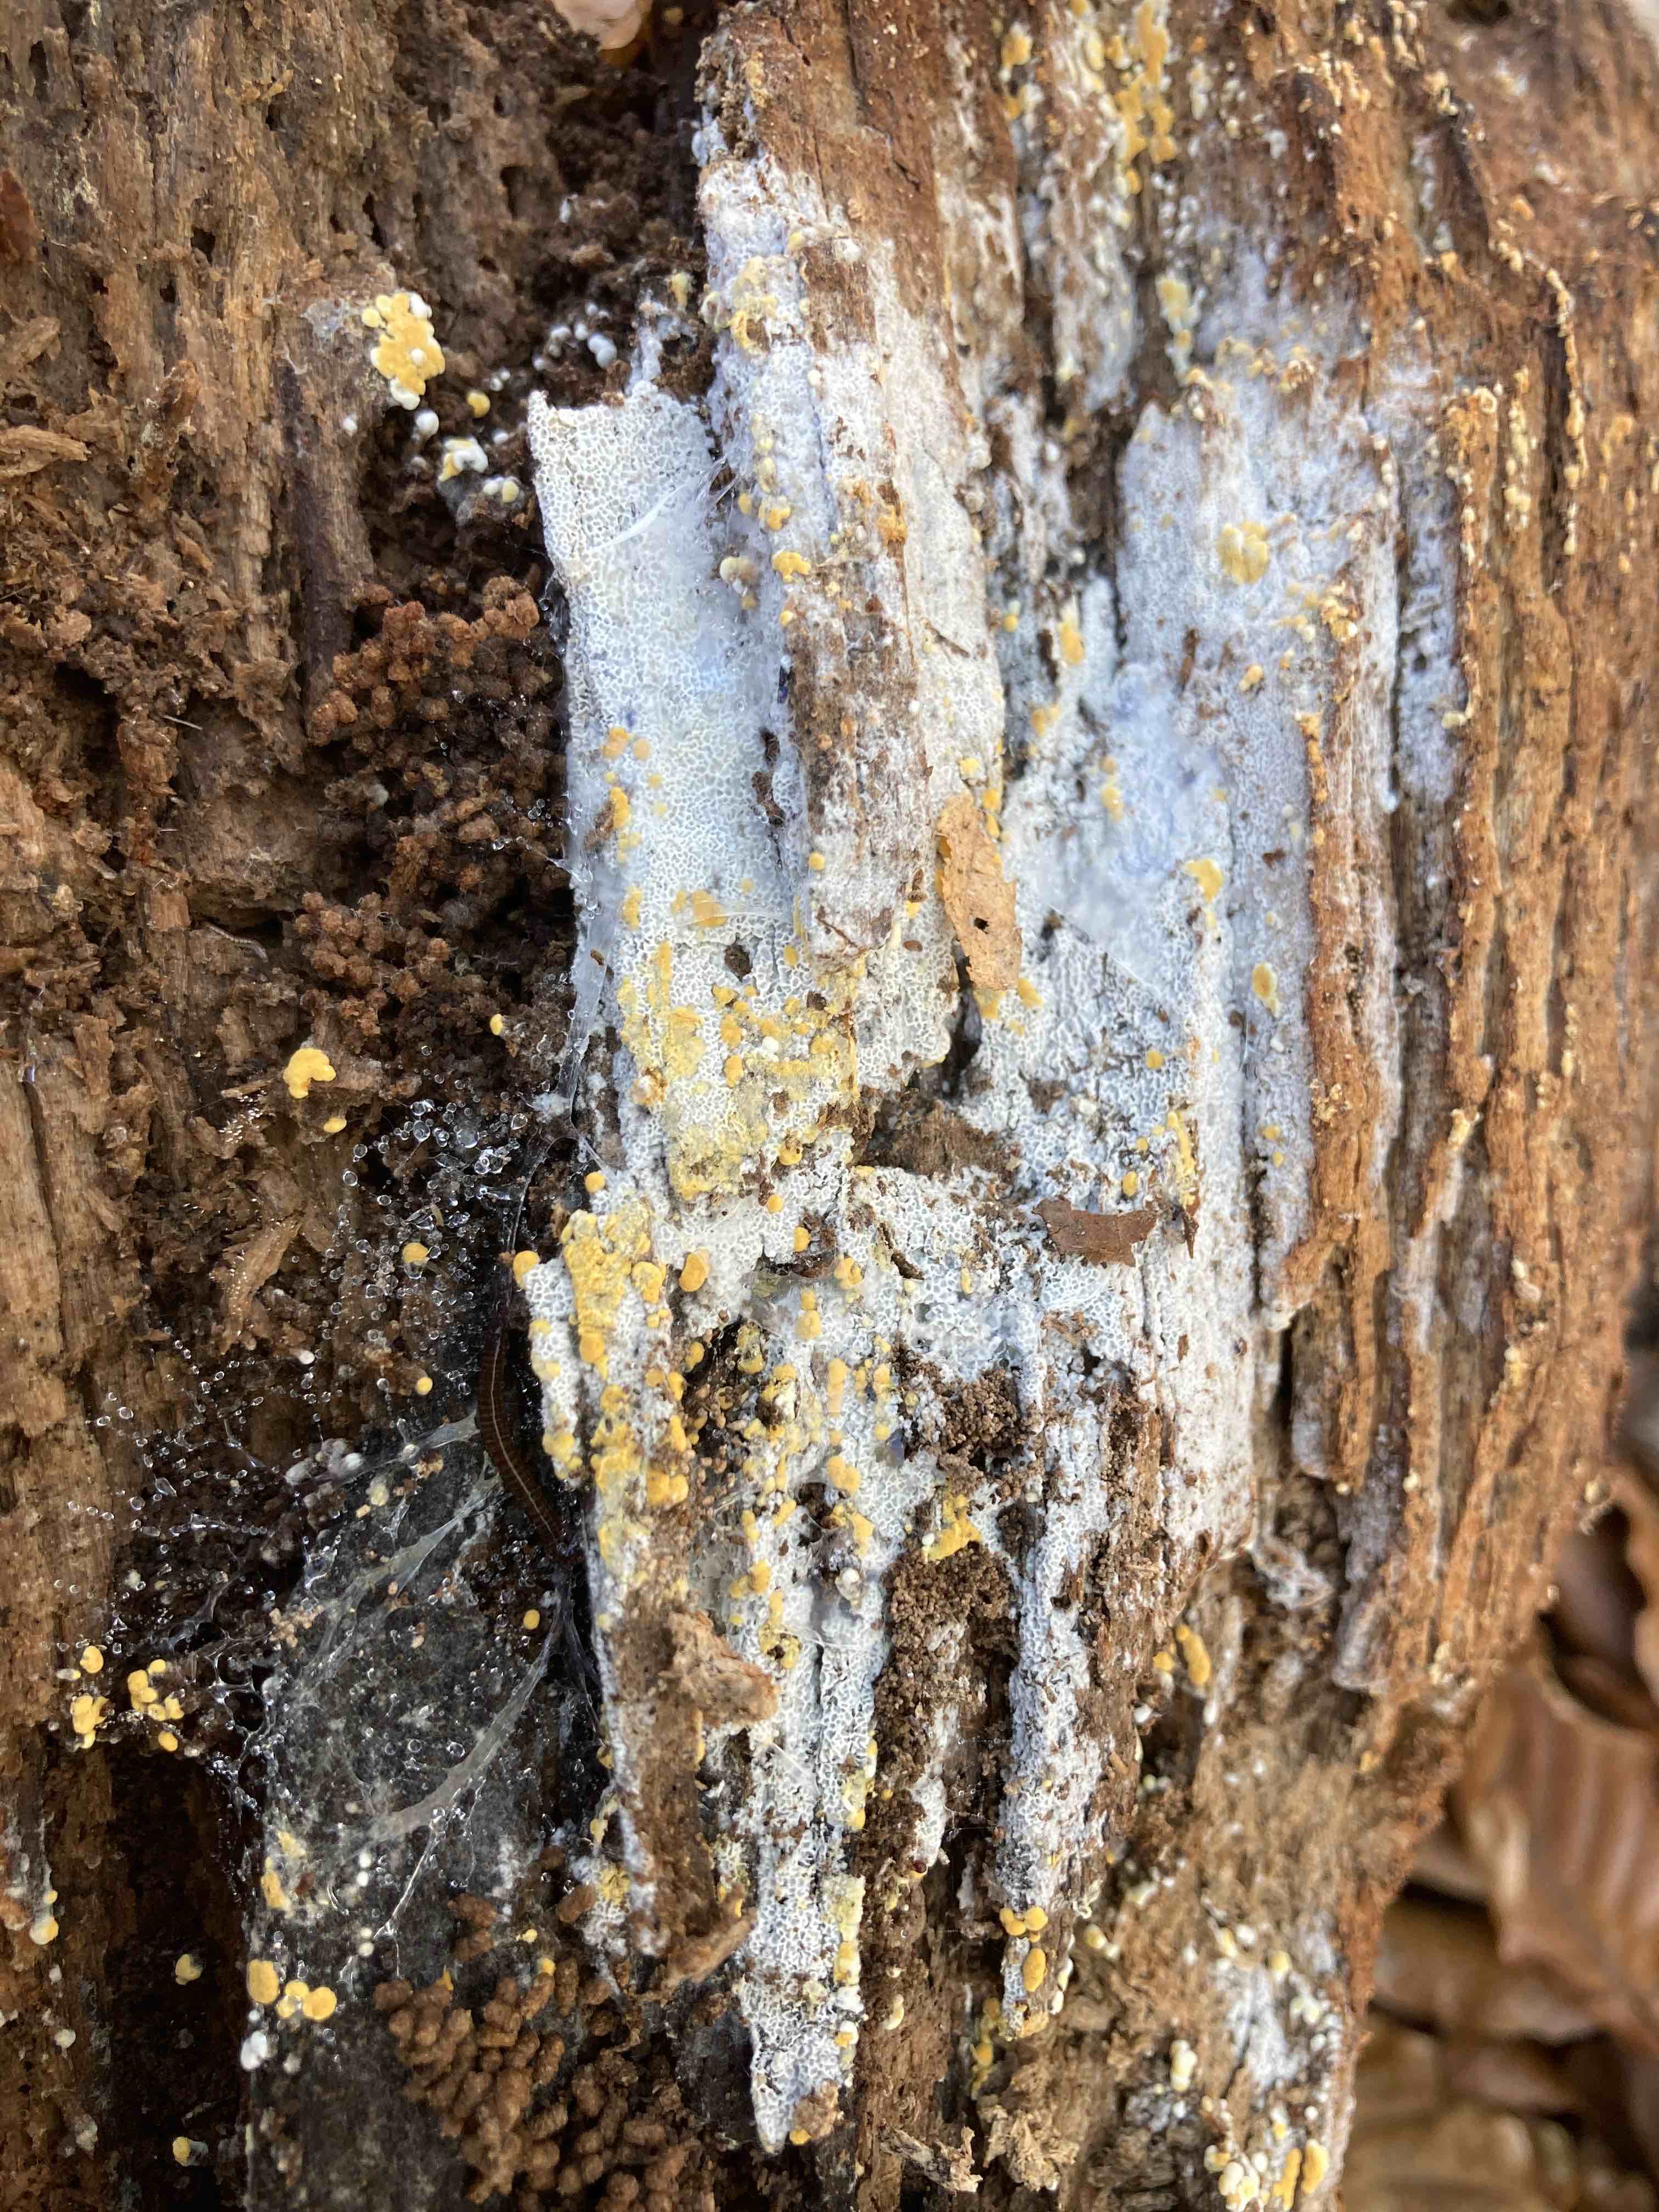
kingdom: Fungi
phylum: Basidiomycota
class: Agaricomycetes
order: Cantharellales
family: Botryobasidiaceae
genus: Botryobasidium
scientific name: Botryobasidium aureum
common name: gylden spindhinde
